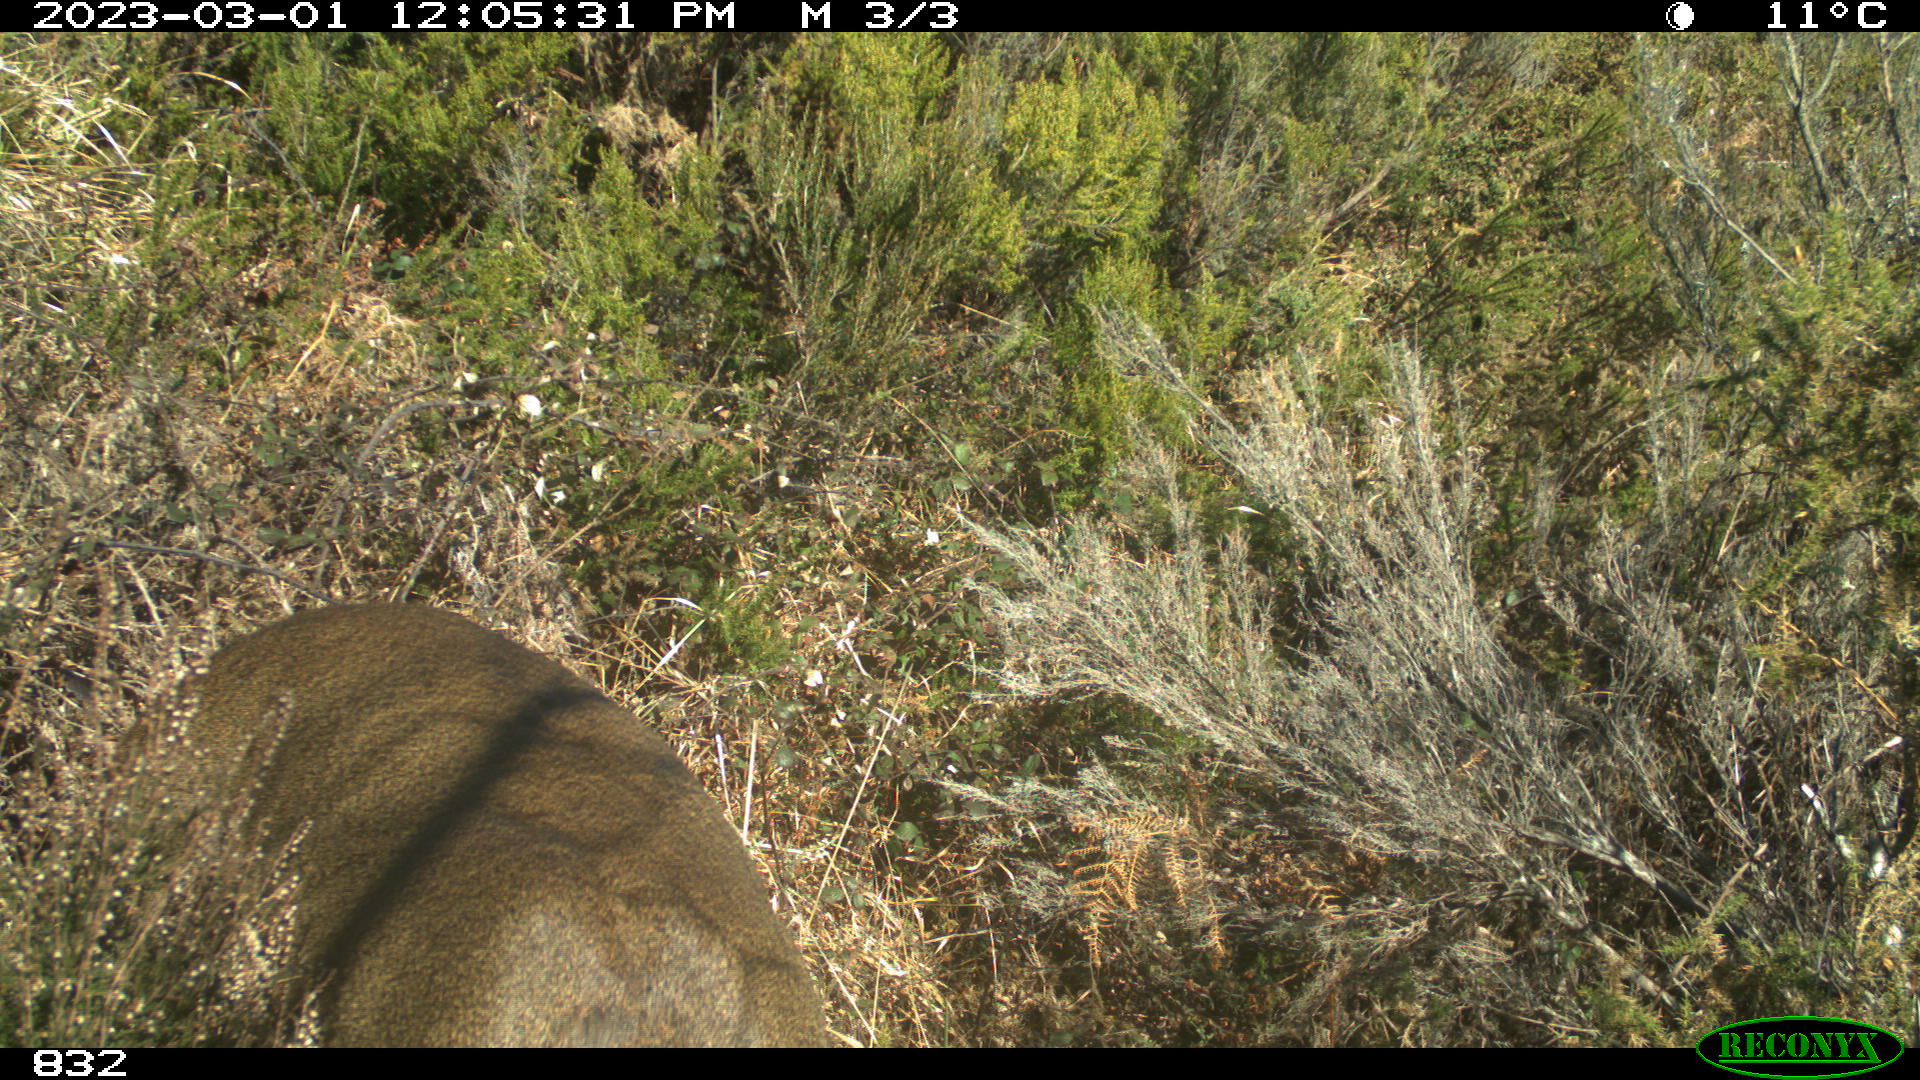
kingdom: Animalia
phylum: Chordata
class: Mammalia
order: Artiodactyla
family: Cervidae
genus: Capreolus
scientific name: Capreolus capreolus
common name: Western roe deer
